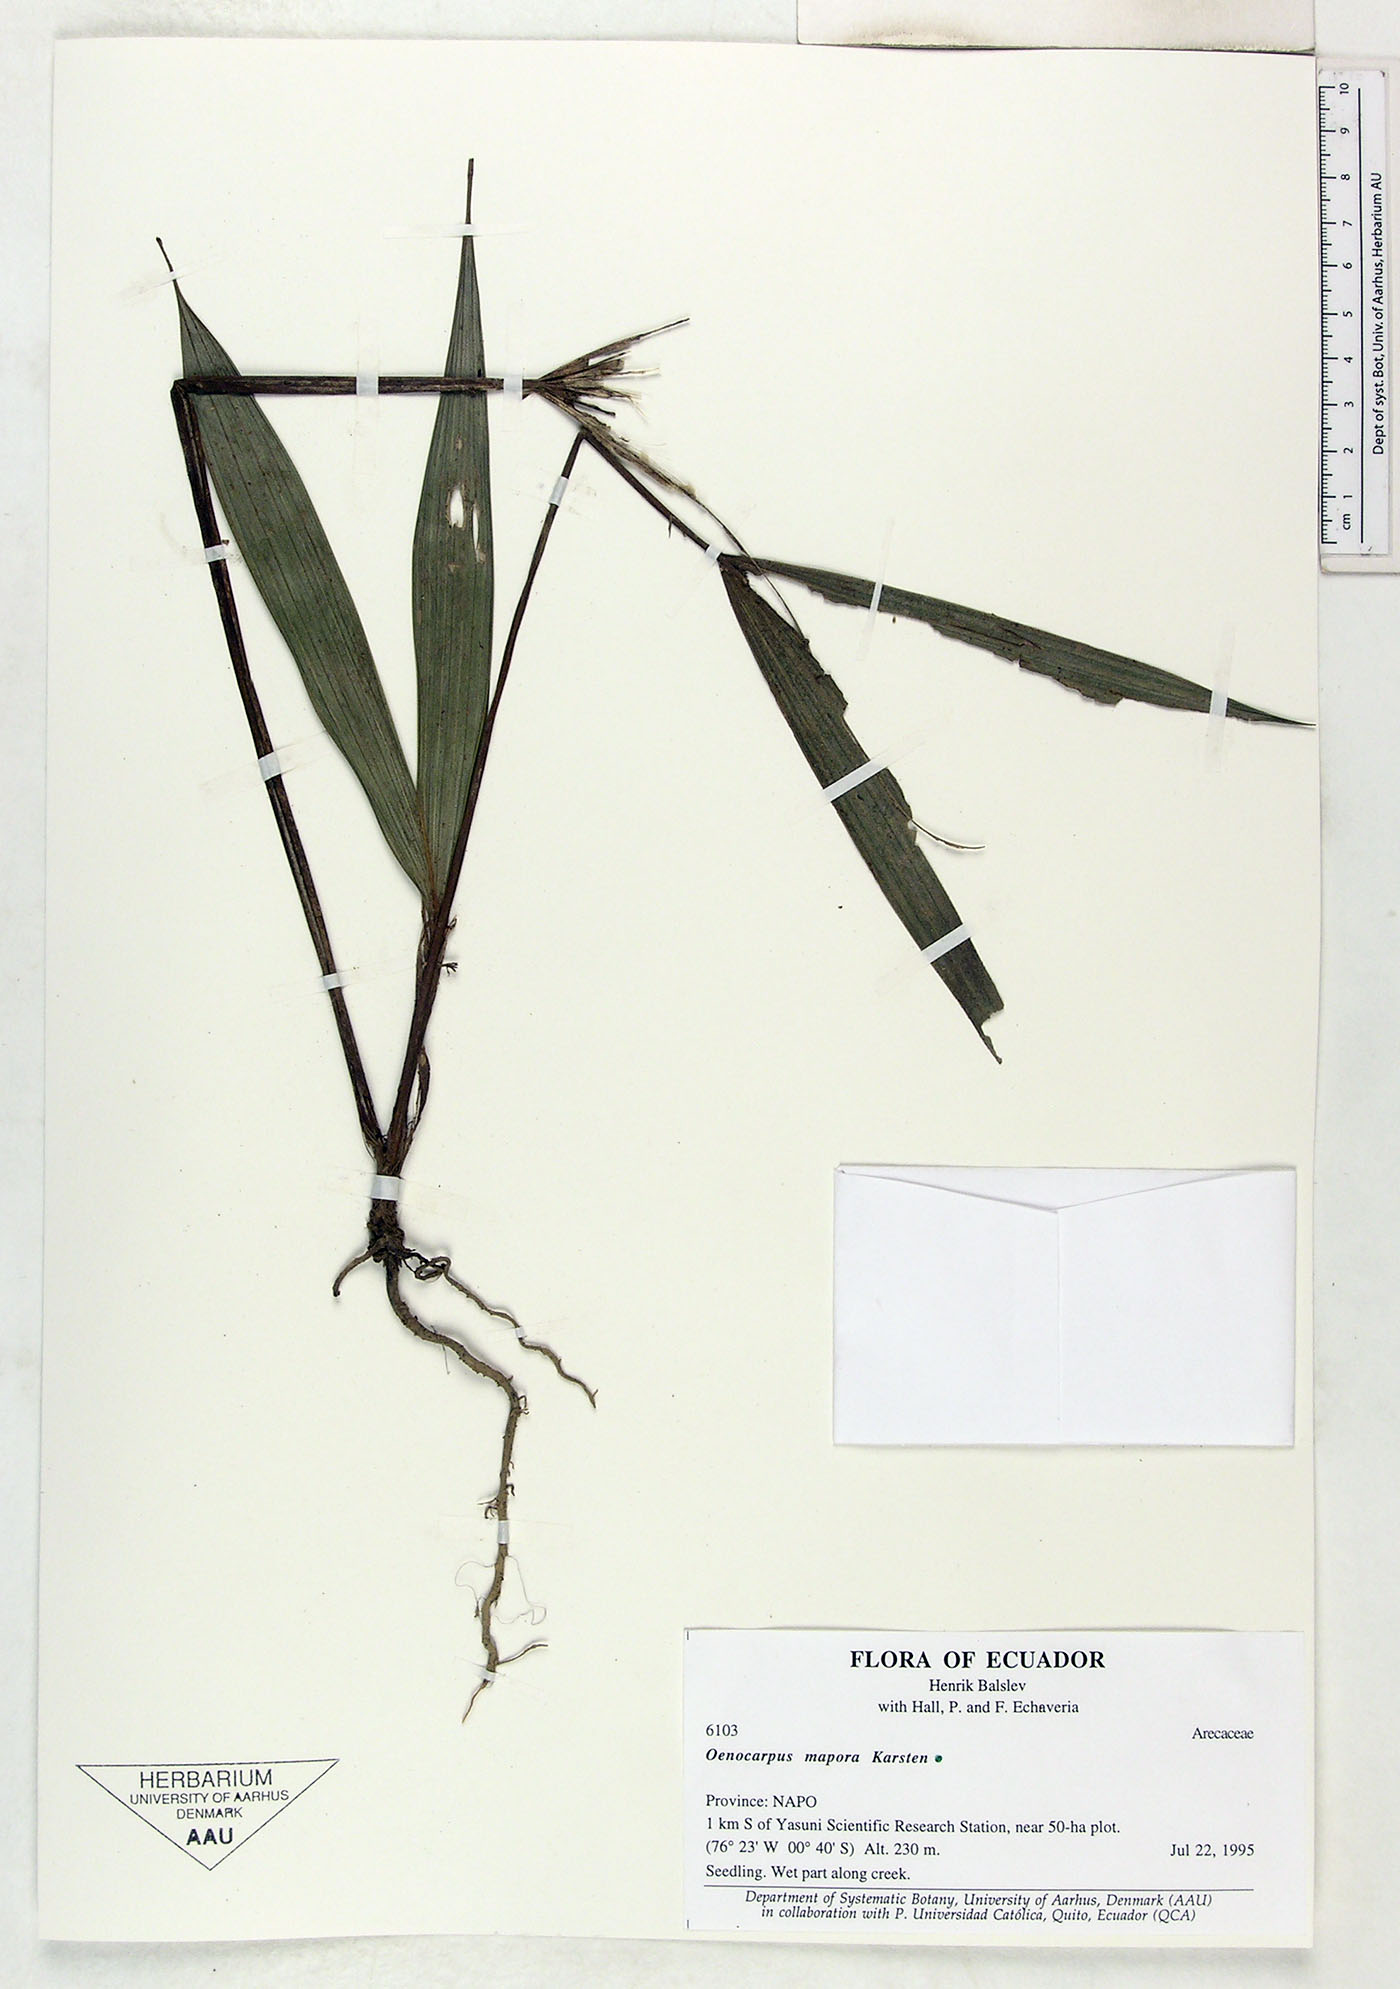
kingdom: Plantae
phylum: Tracheophyta
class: Liliopsida
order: Arecales
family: Arecaceae
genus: Oenocarpus
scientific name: Oenocarpus mapora
